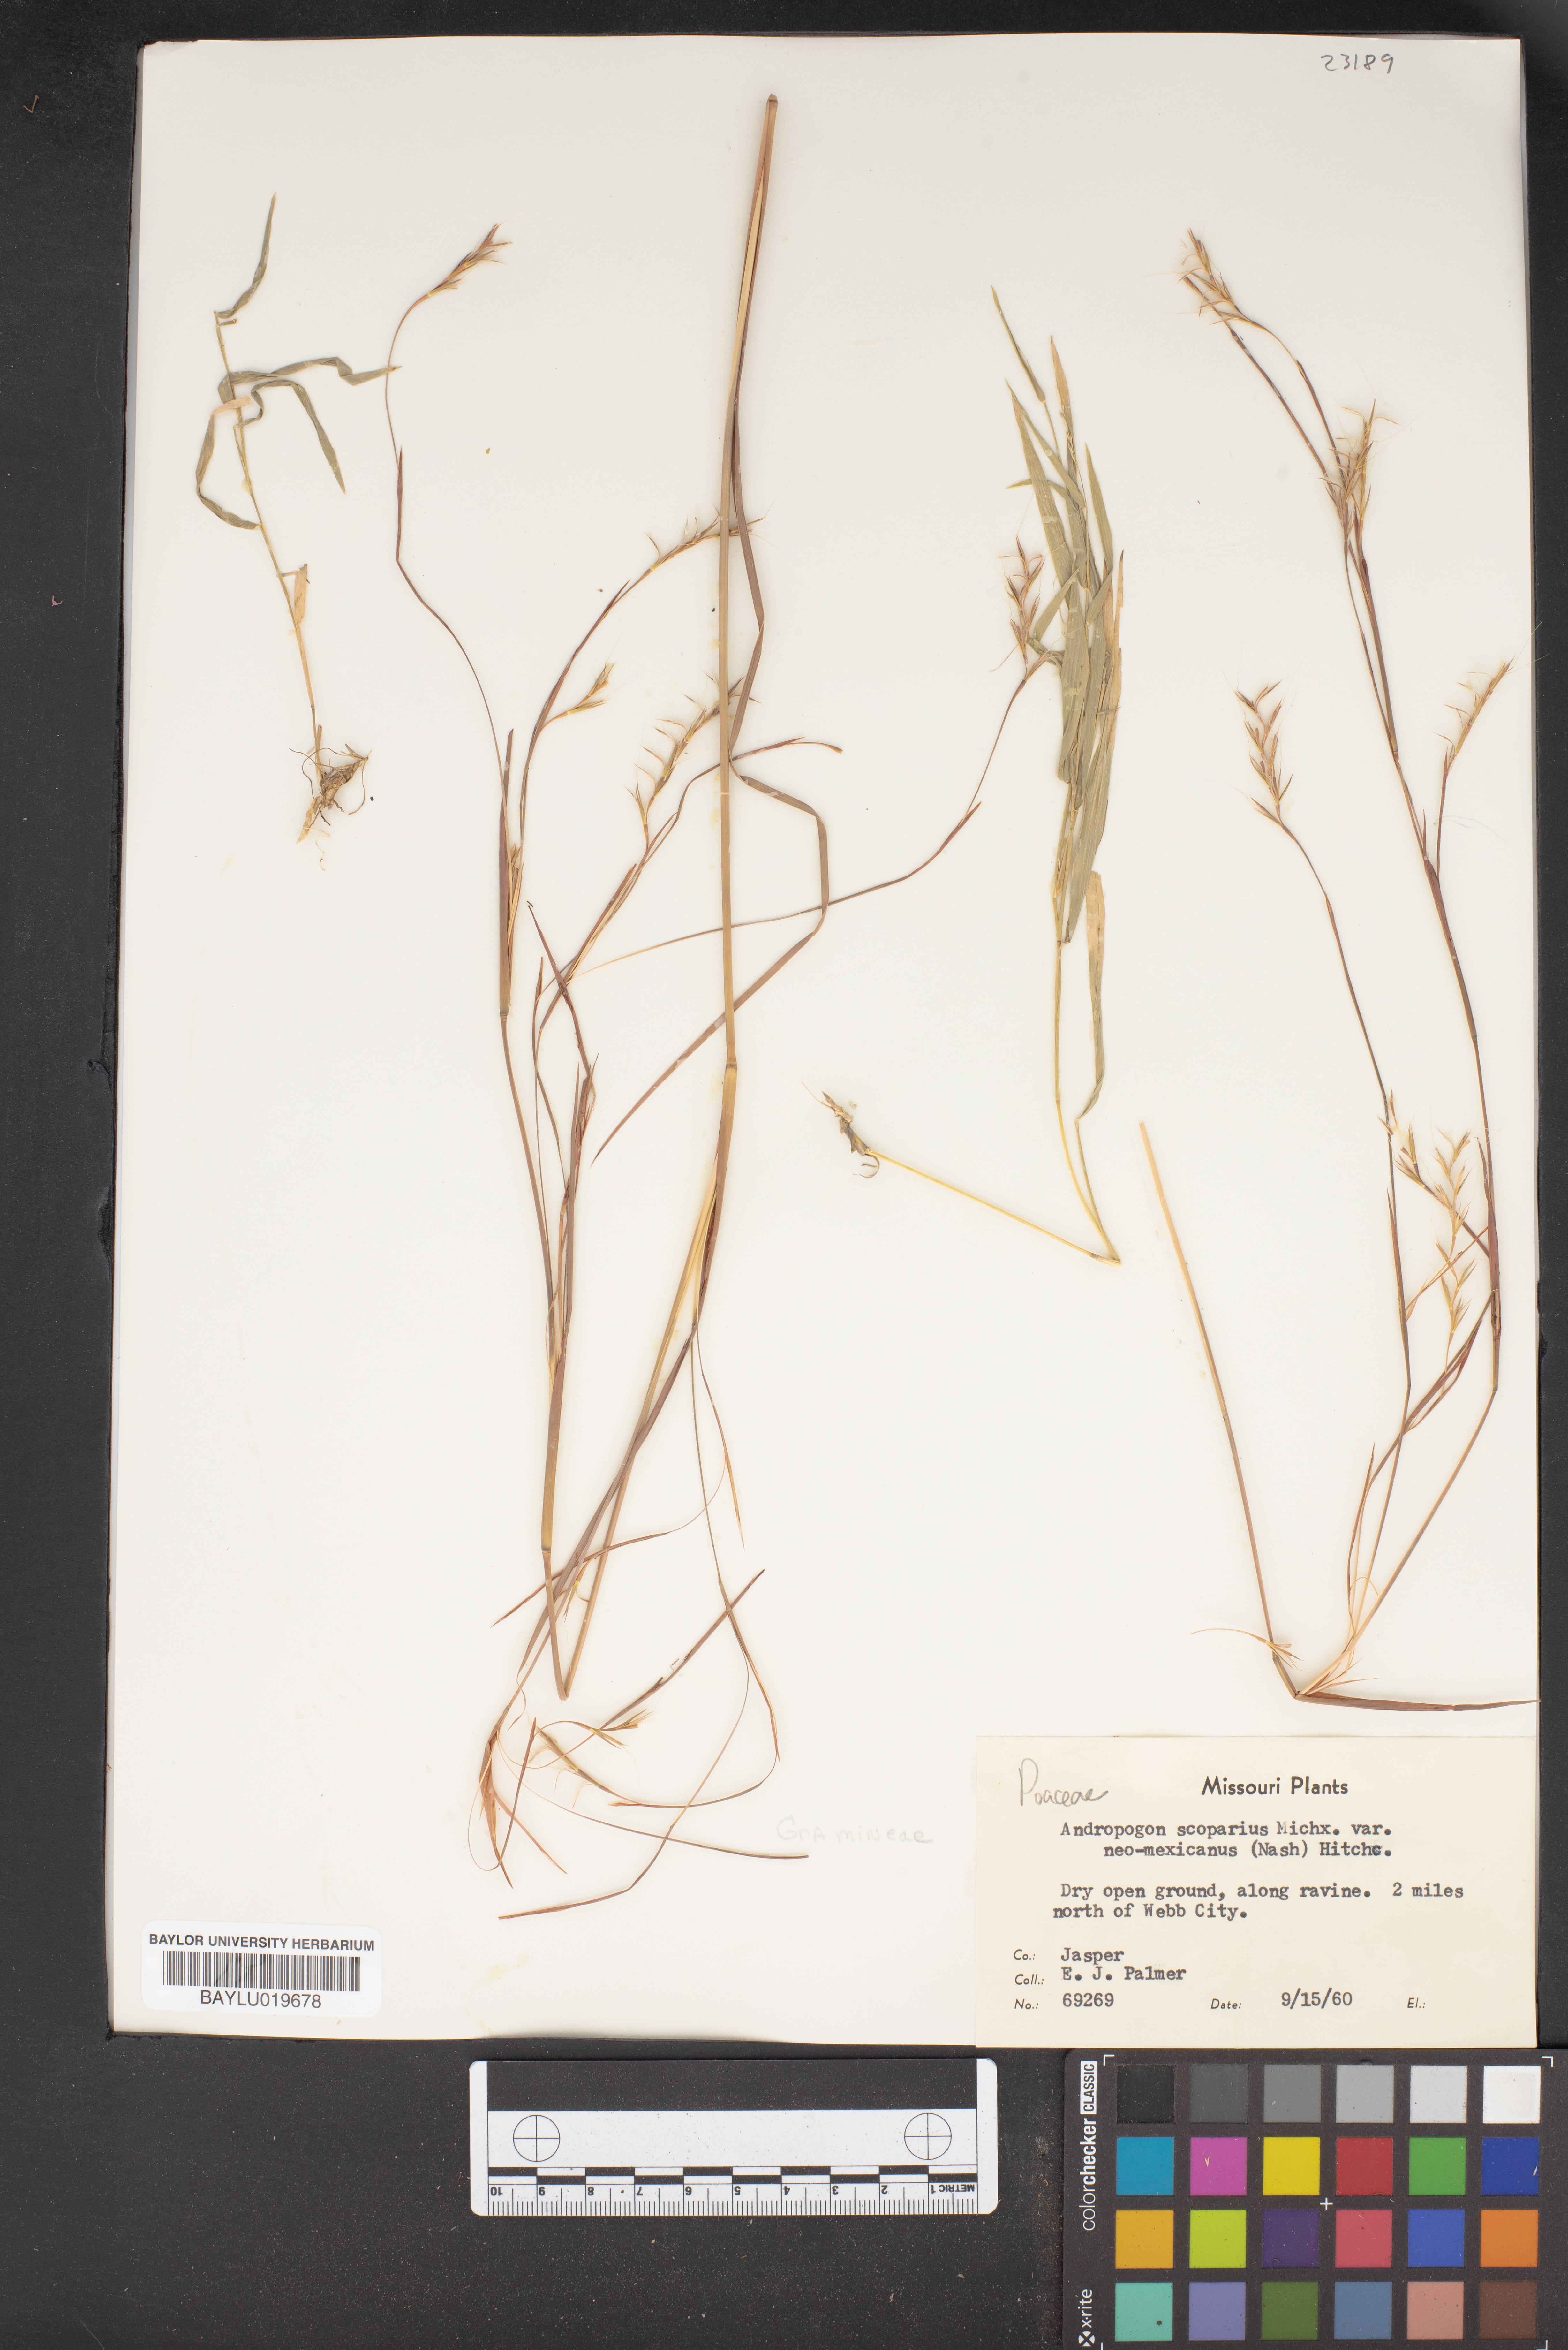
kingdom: Plantae
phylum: Tracheophyta
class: Liliopsida
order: Poales
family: Poaceae
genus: Schizachyrium
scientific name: Schizachyrium scoparium
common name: Little bluestem
